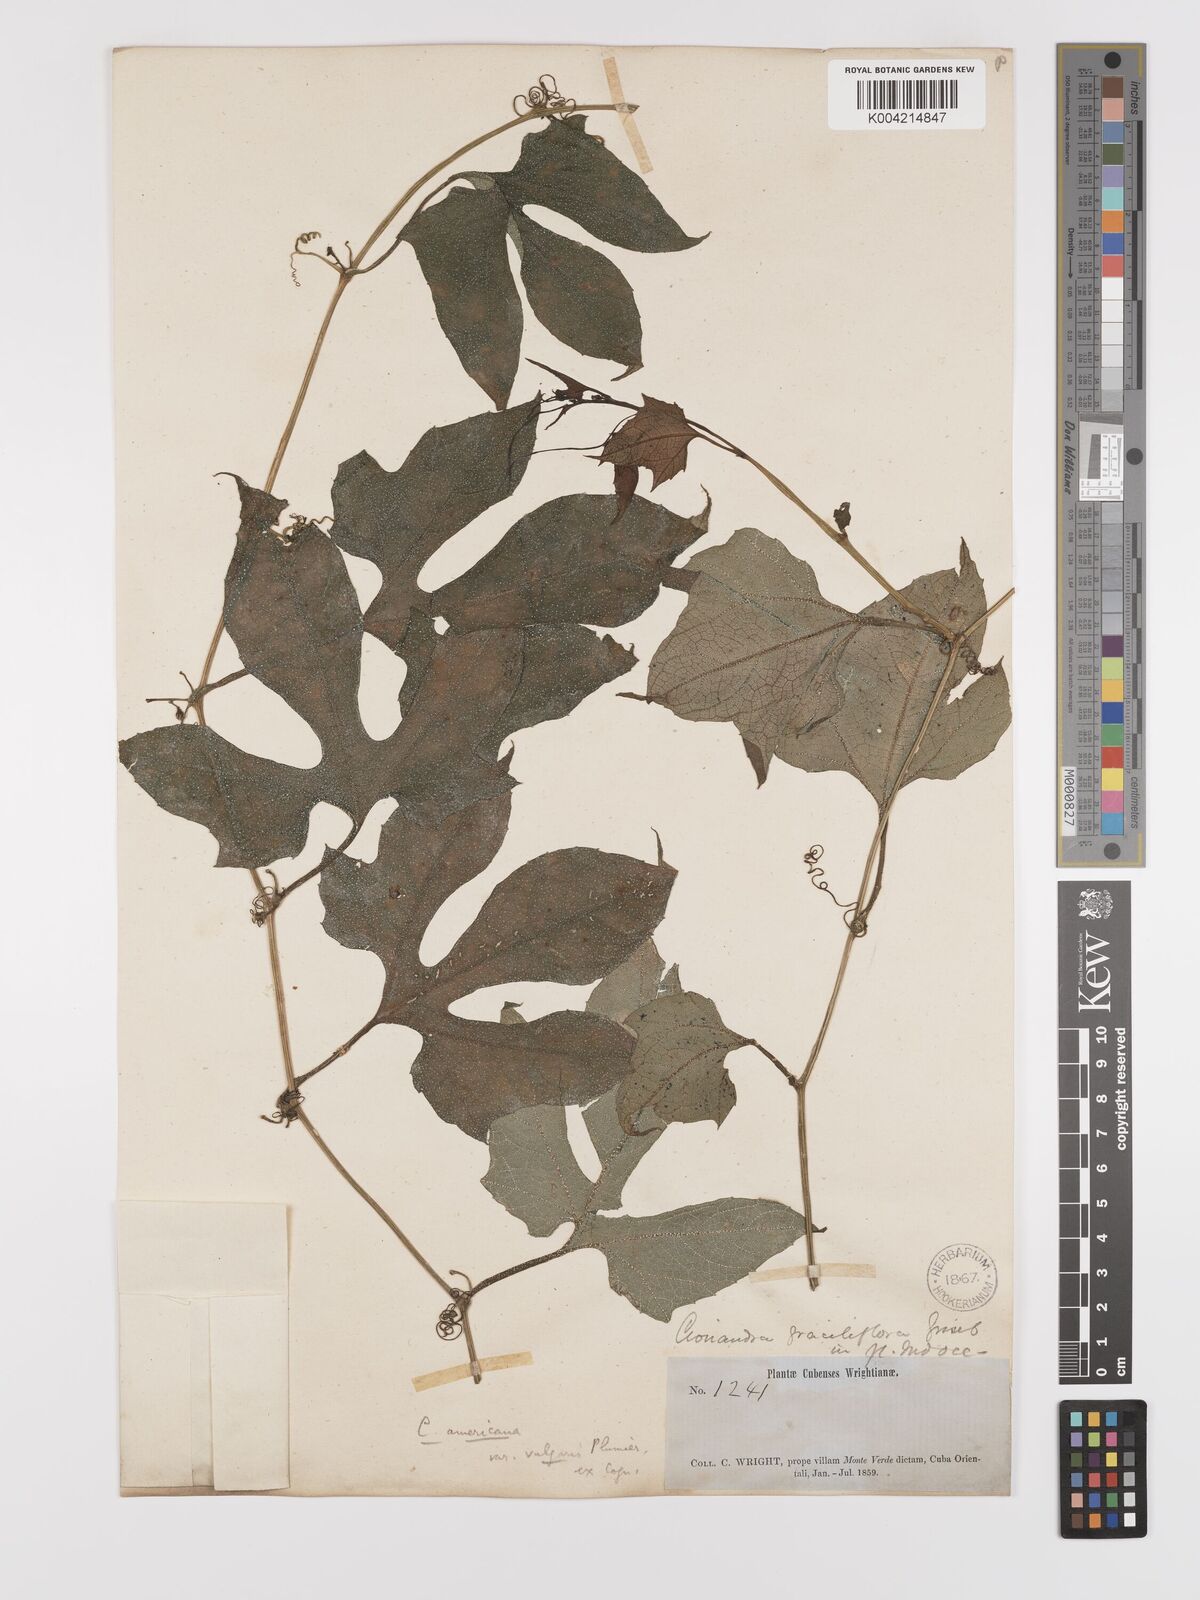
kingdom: Plantae
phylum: Tracheophyta
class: Magnoliopsida
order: Cucurbitales
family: Cucurbitaceae
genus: Cayaponia
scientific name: Cayaponia americana
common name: American melonleaf
